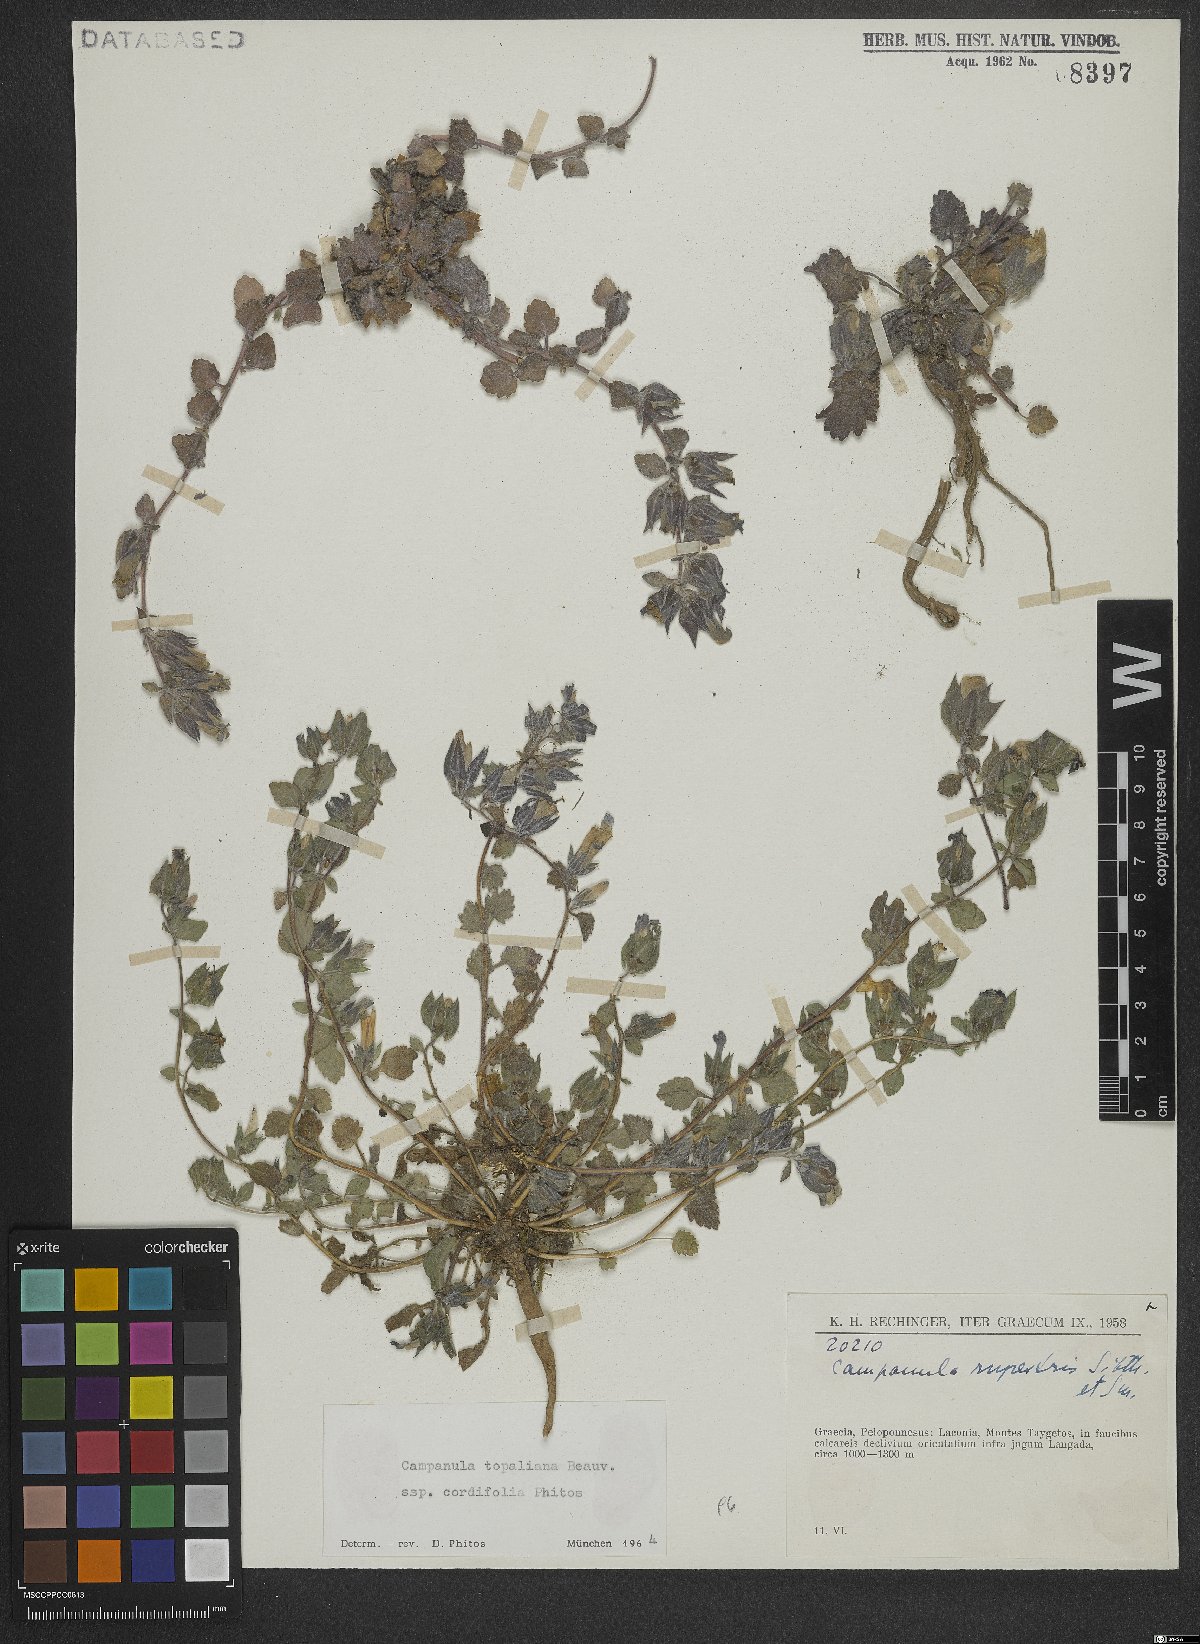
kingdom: Plantae
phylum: Tracheophyta
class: Magnoliopsida
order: Asterales
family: Campanulaceae
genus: Campanula
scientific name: Campanula topaliana
